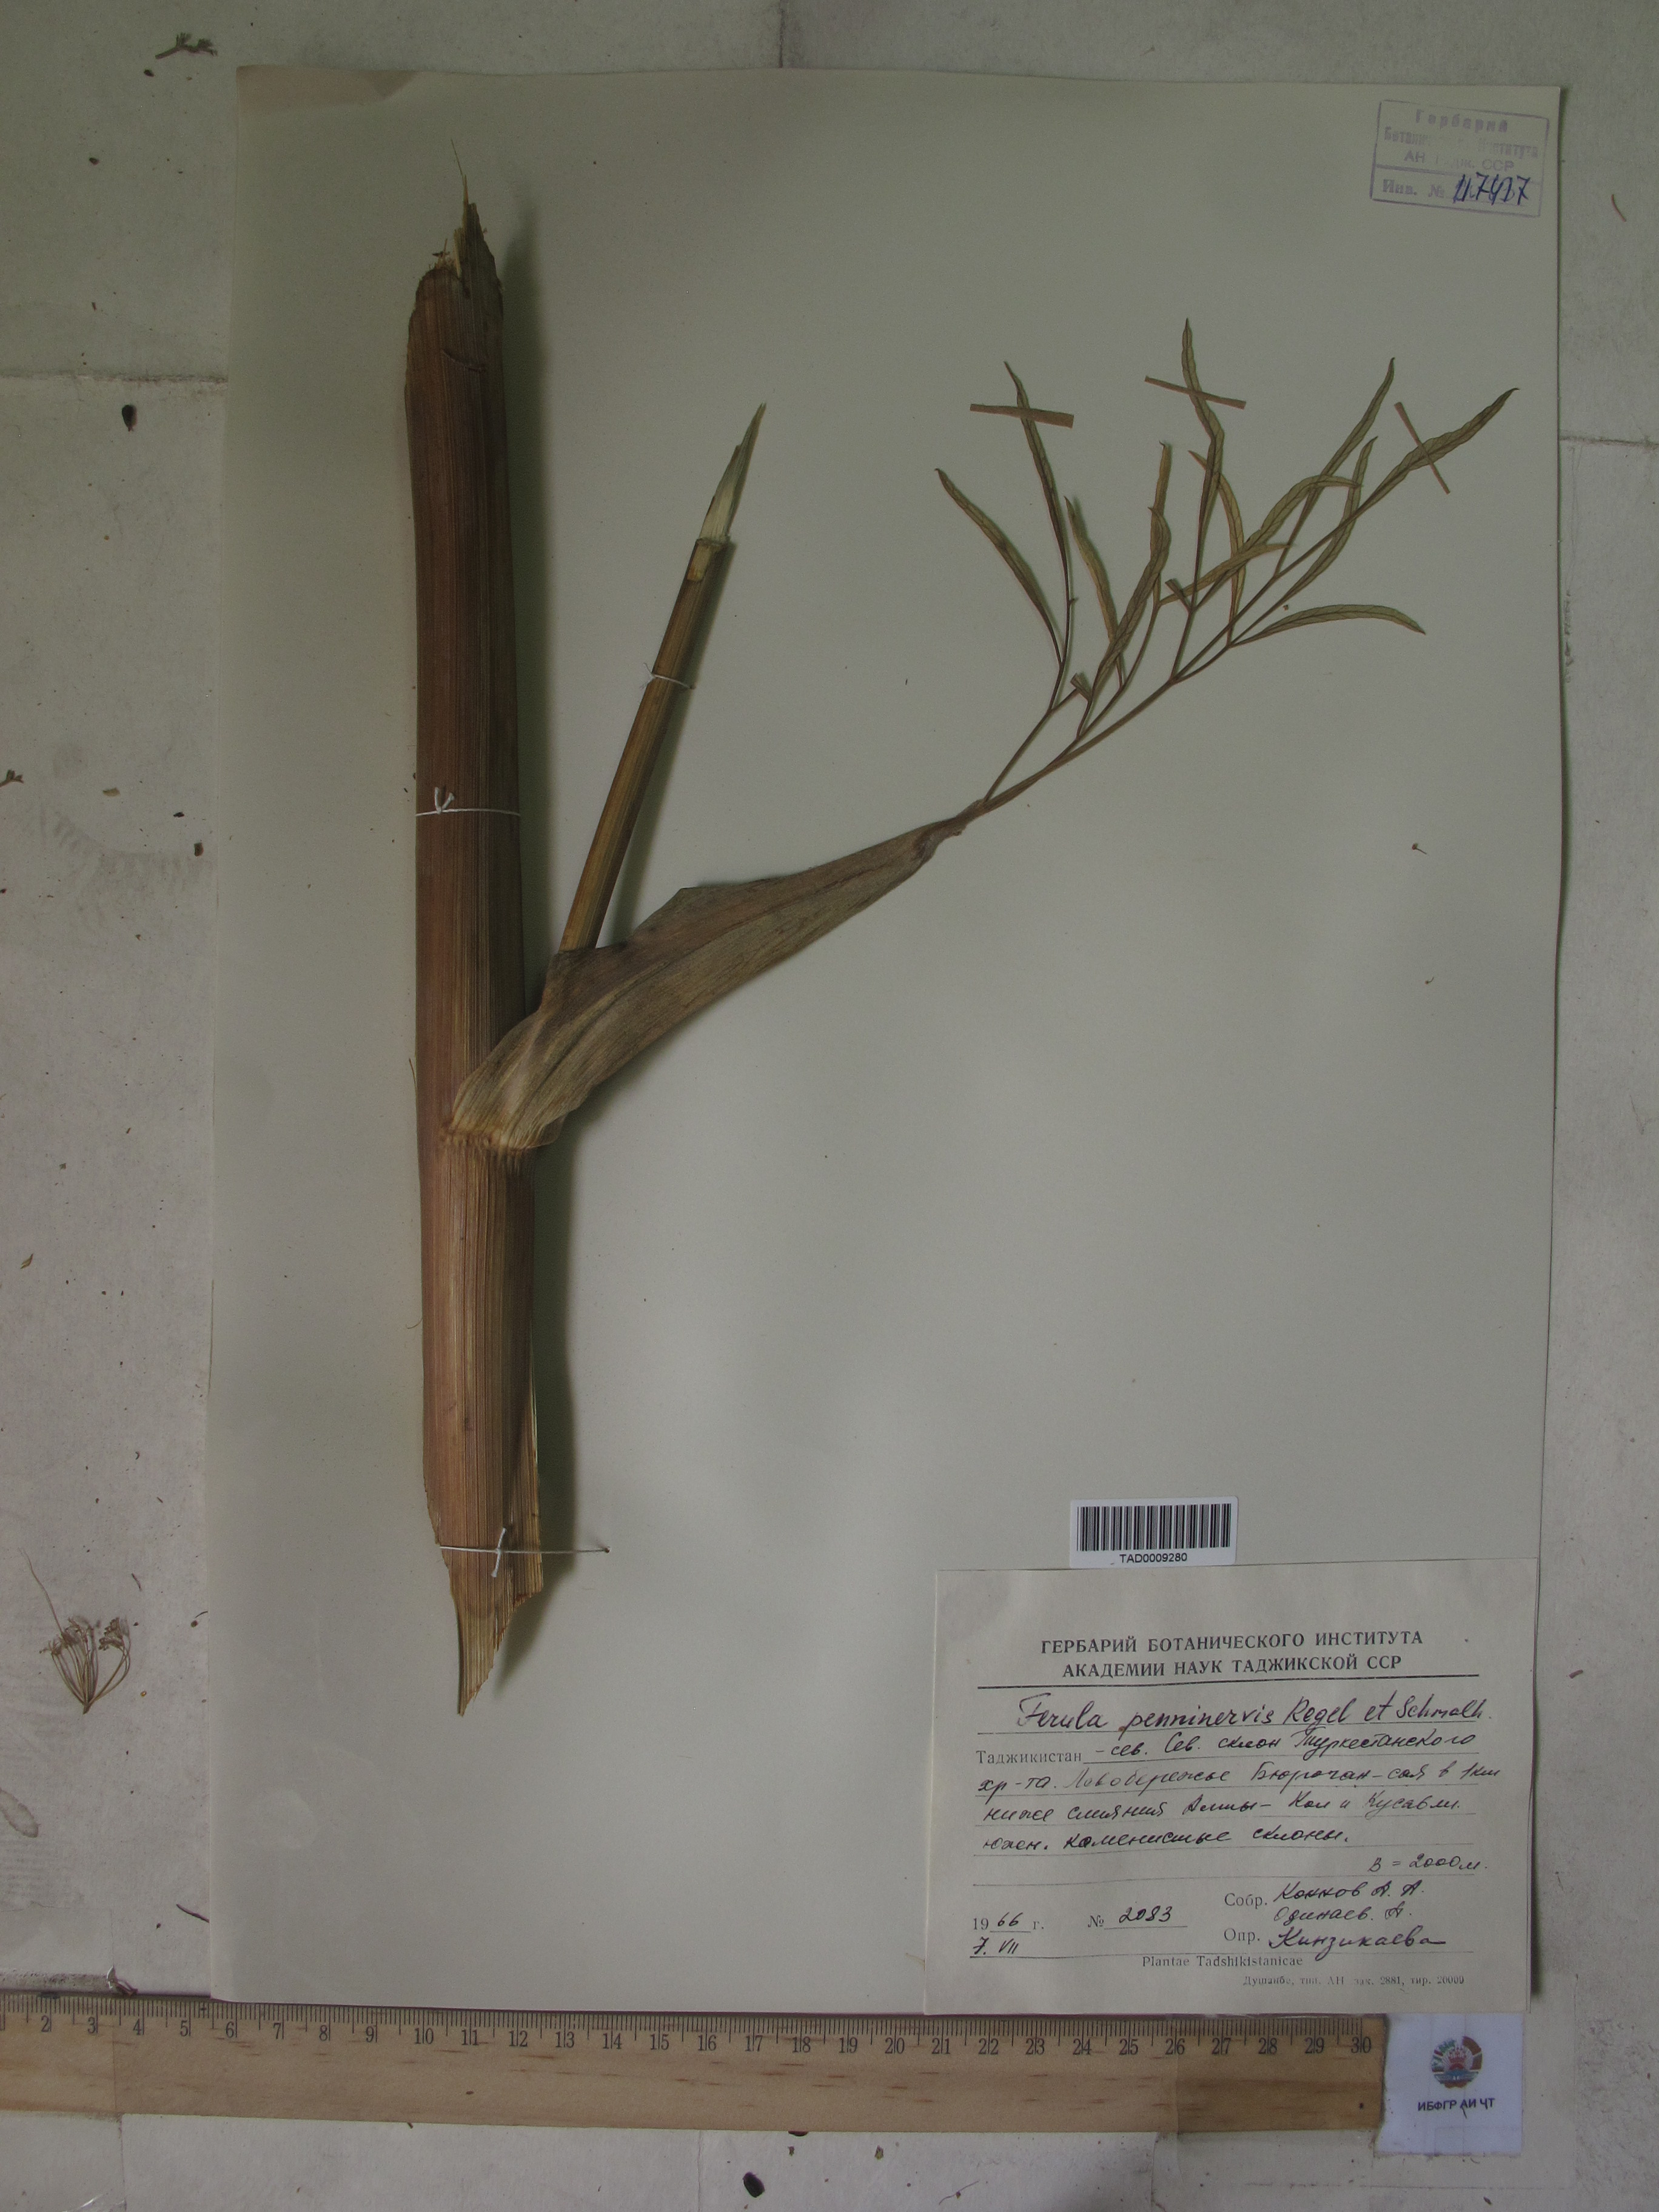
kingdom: Plantae
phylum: Tracheophyta
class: Magnoliopsida
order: Apiales
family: Apiaceae
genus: Ferula
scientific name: Ferula
